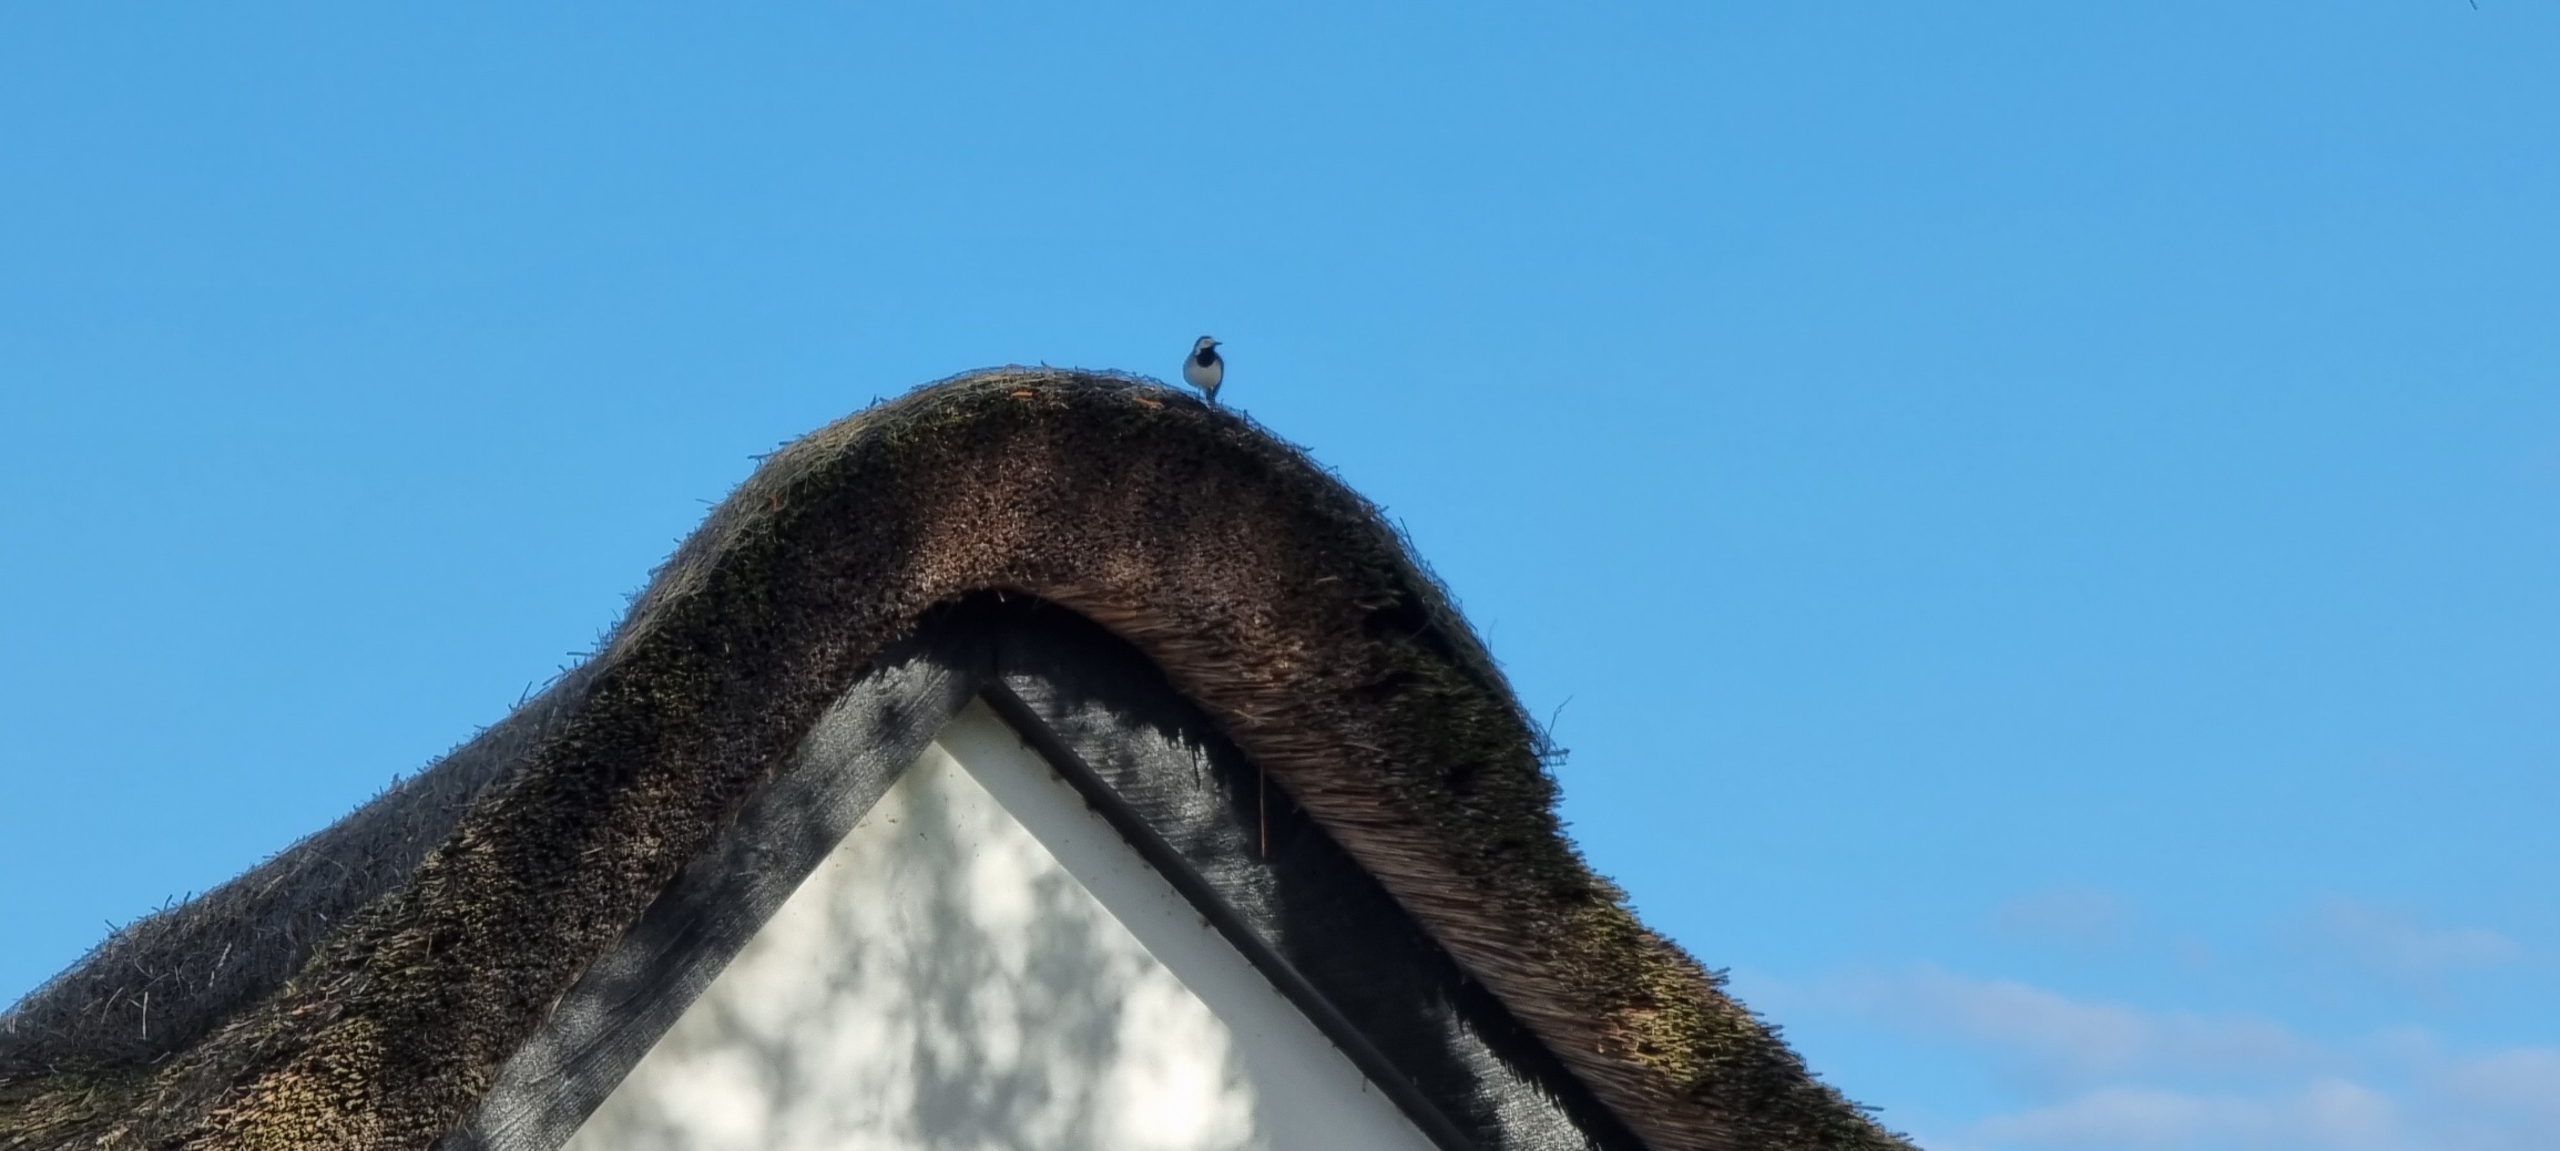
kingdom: Animalia
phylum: Chordata
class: Aves
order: Passeriformes
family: Motacillidae
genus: Motacilla
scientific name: Motacilla alba
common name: Hvid vipstjert
